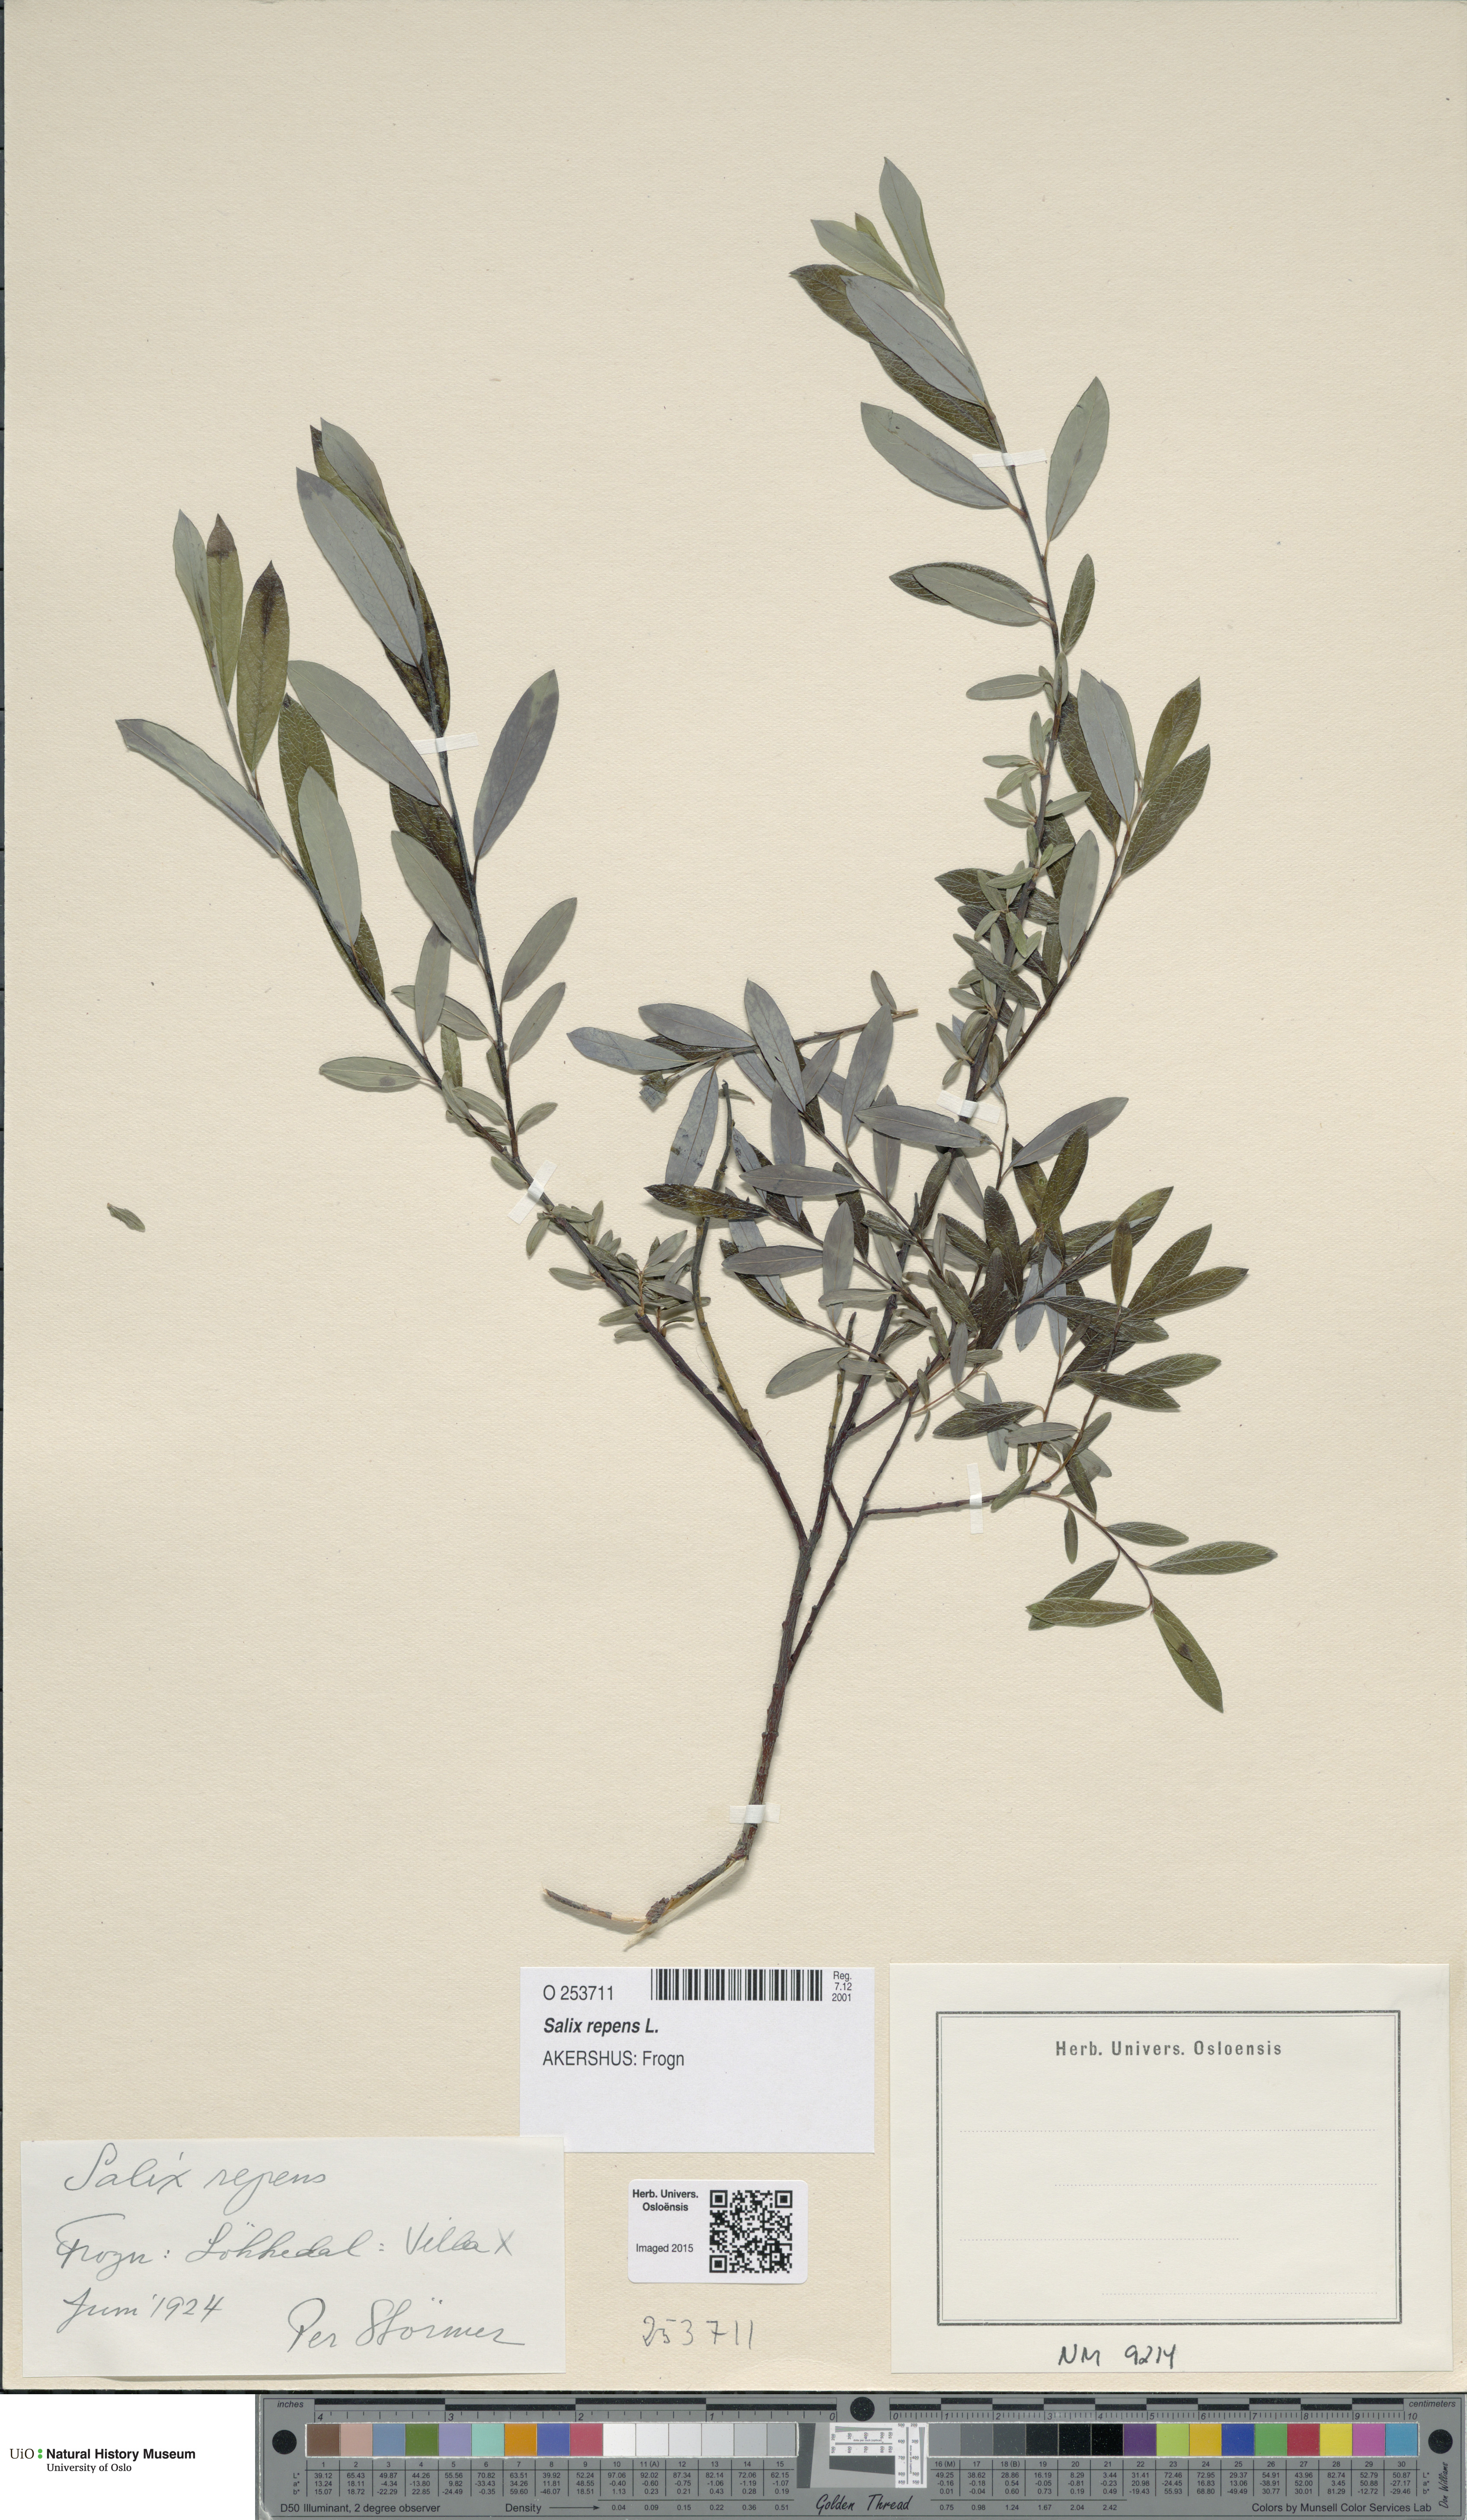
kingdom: Plantae
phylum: Tracheophyta
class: Magnoliopsida
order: Malpighiales
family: Salicaceae
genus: Salix
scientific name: Salix repens
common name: Creeping willow
